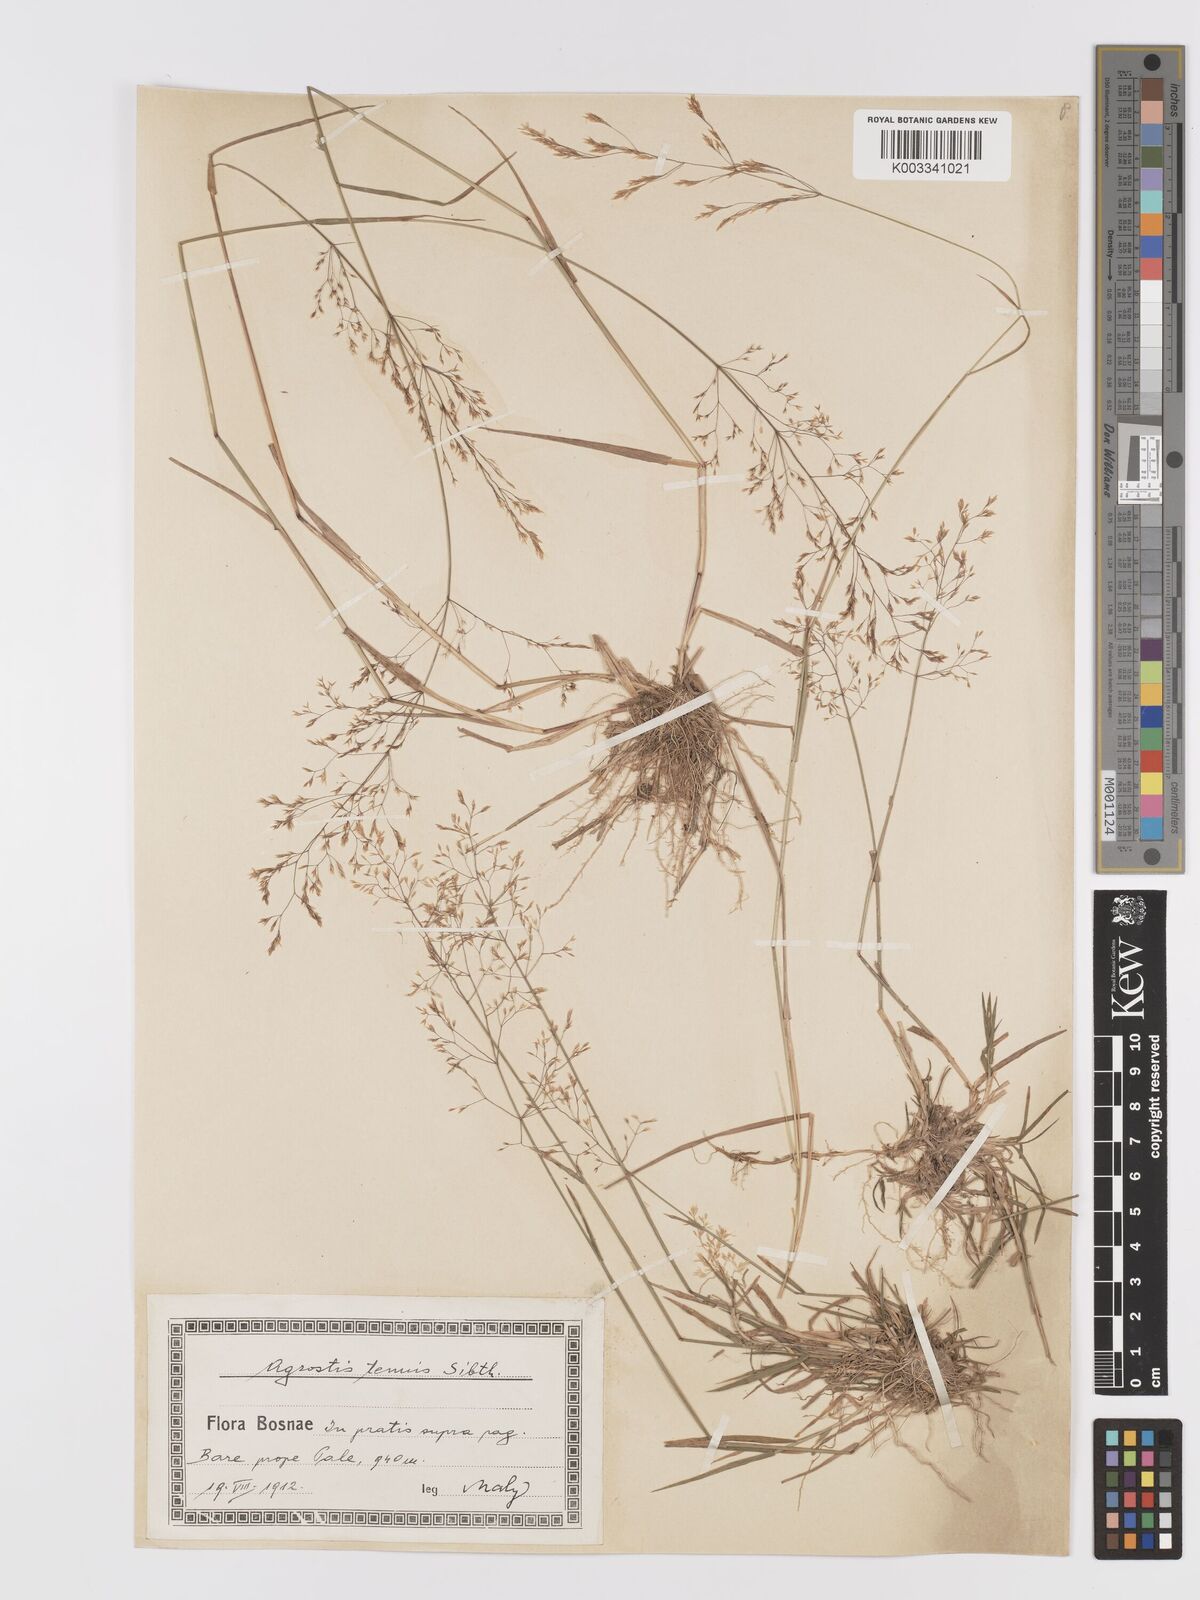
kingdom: Plantae
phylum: Tracheophyta
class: Liliopsida
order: Poales
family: Poaceae
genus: Agrostis
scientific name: Agrostis capillaris
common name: Colonial bentgrass
